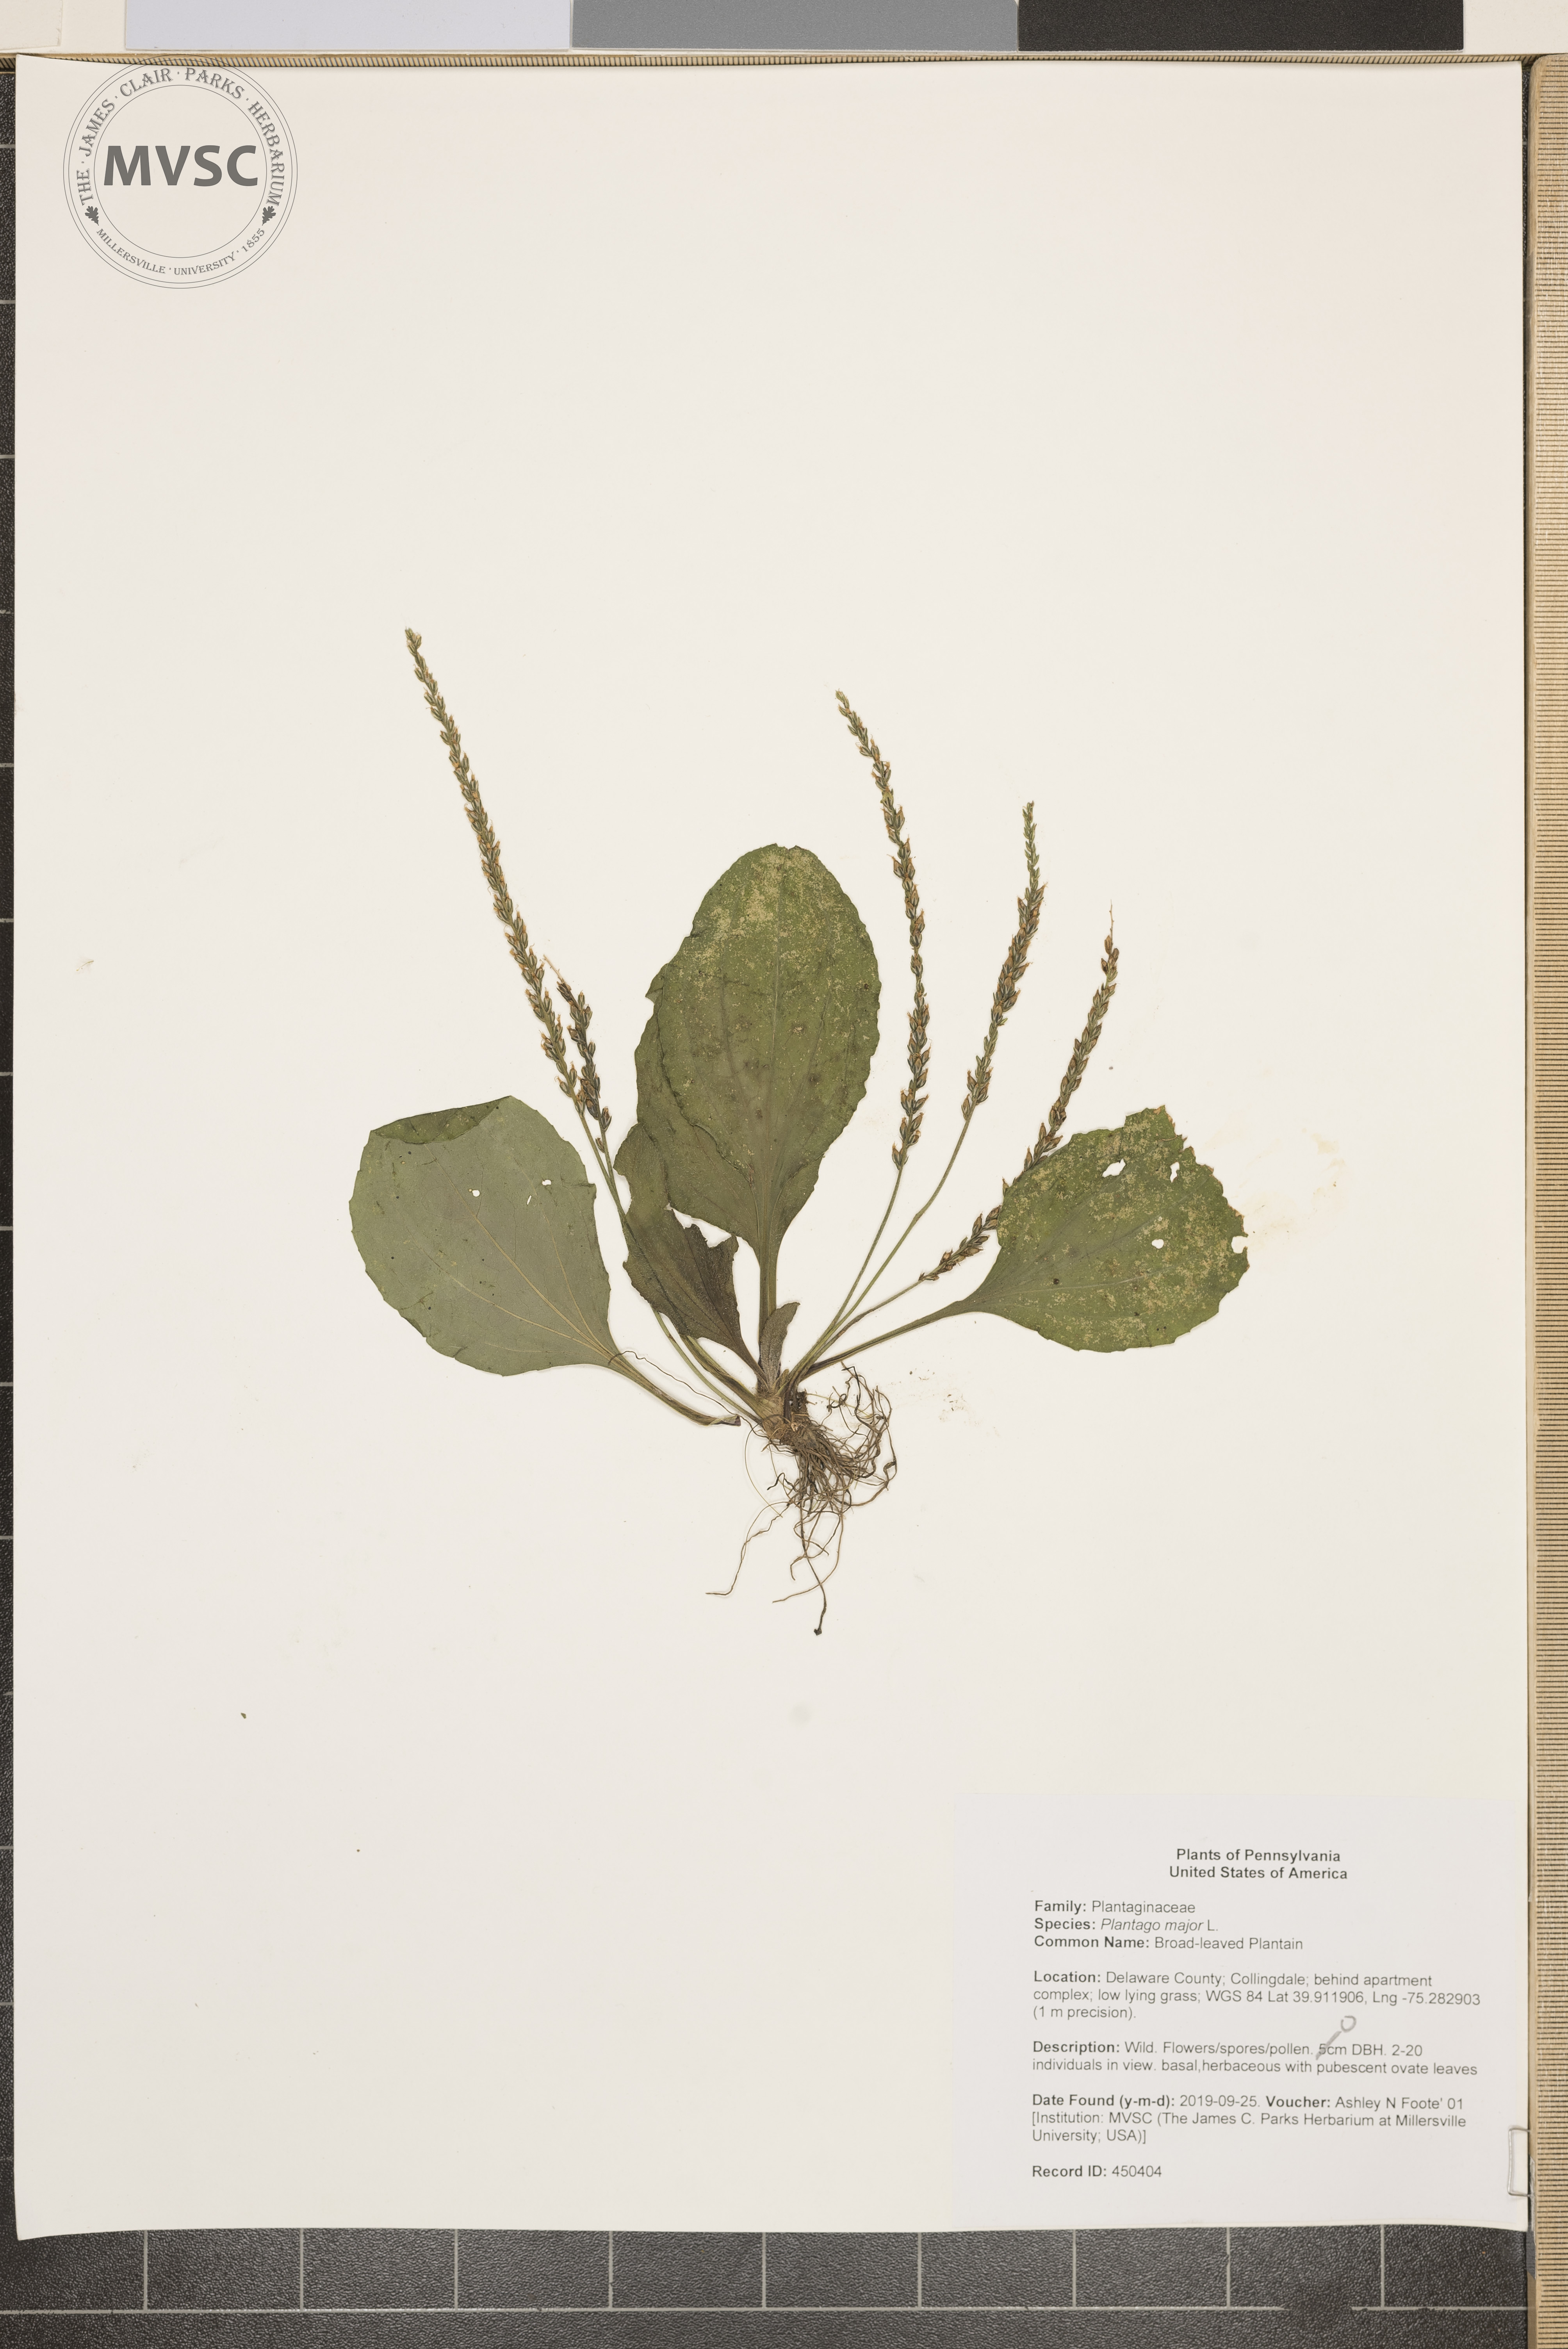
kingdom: Plantae
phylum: Tracheophyta
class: Magnoliopsida
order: Lamiales
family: Plantaginaceae
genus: Plantago
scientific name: Plantago major
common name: Broad-leaved Plantain
